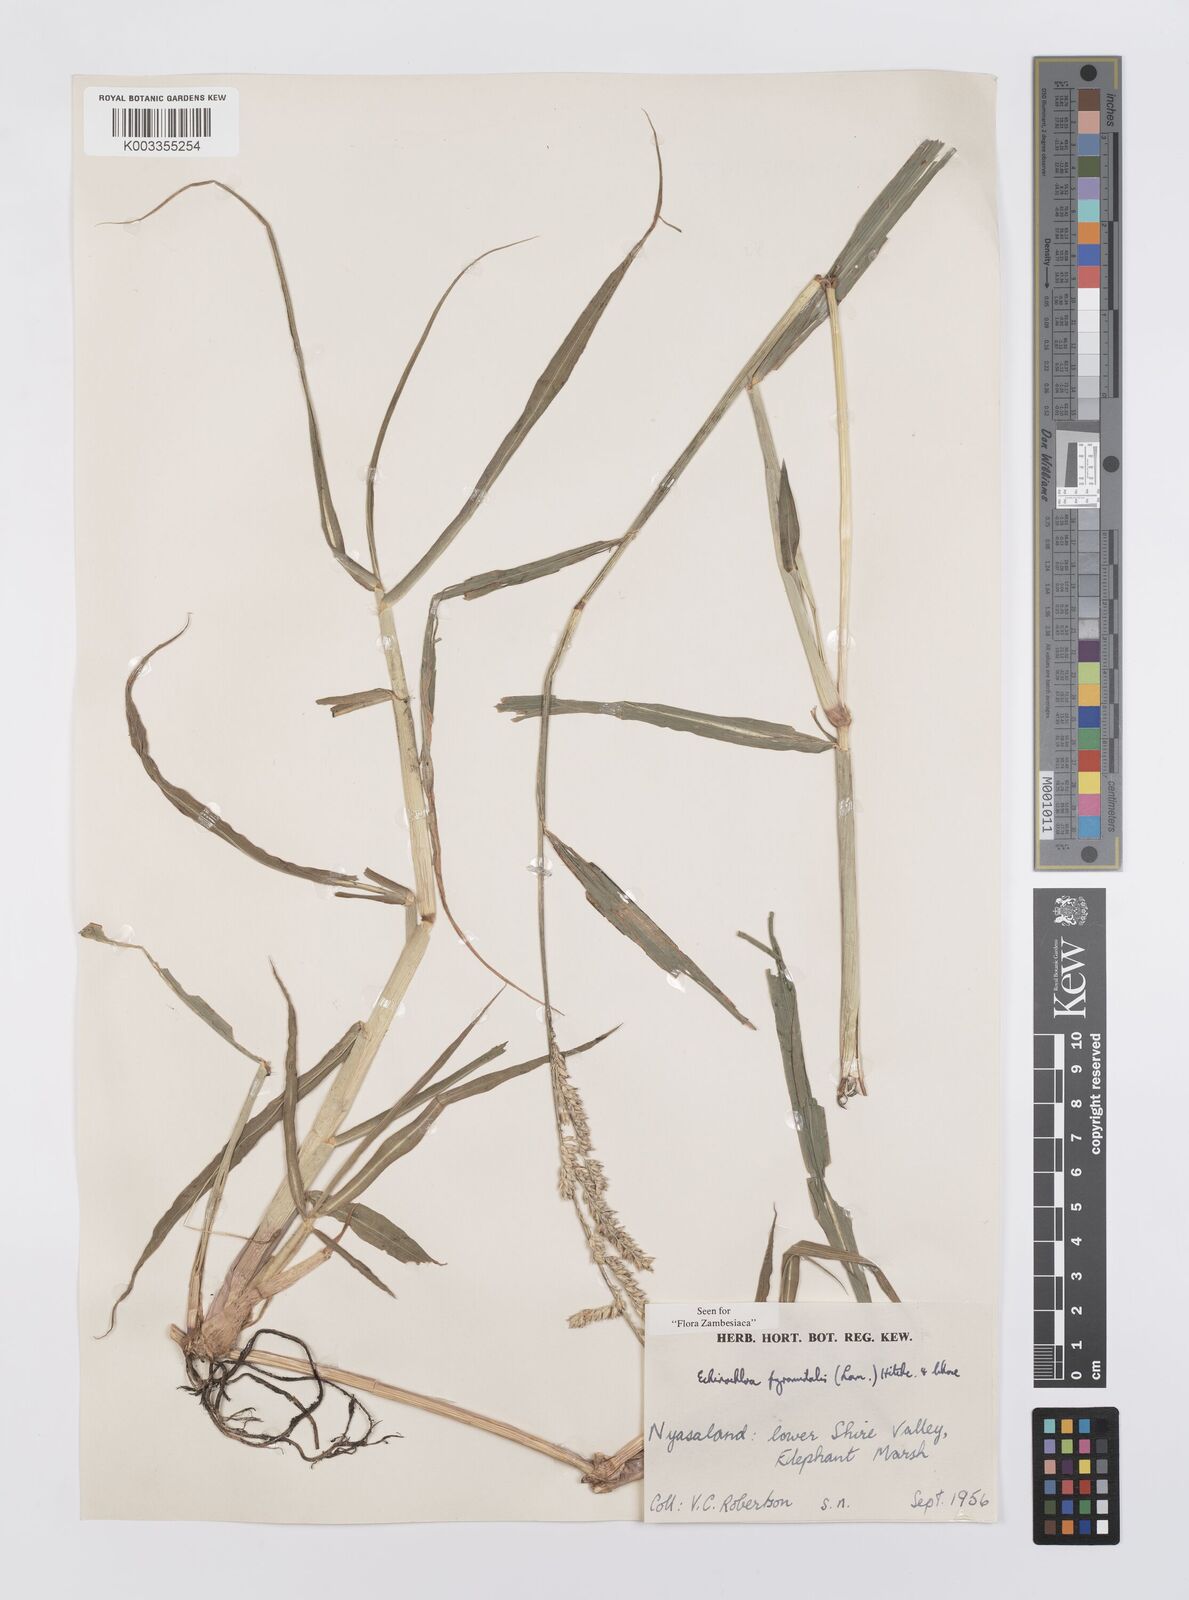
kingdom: Plantae
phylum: Tracheophyta
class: Liliopsida
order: Poales
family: Poaceae
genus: Echinochloa
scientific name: Echinochloa pyramidalis
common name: Antelope grass
